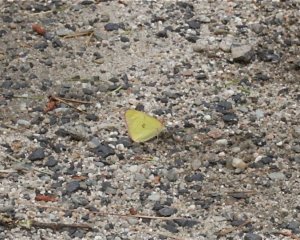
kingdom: Animalia
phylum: Arthropoda
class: Insecta
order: Lepidoptera
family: Pieridae
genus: Colias
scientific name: Colias interior
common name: Pink-edged Sulphur
